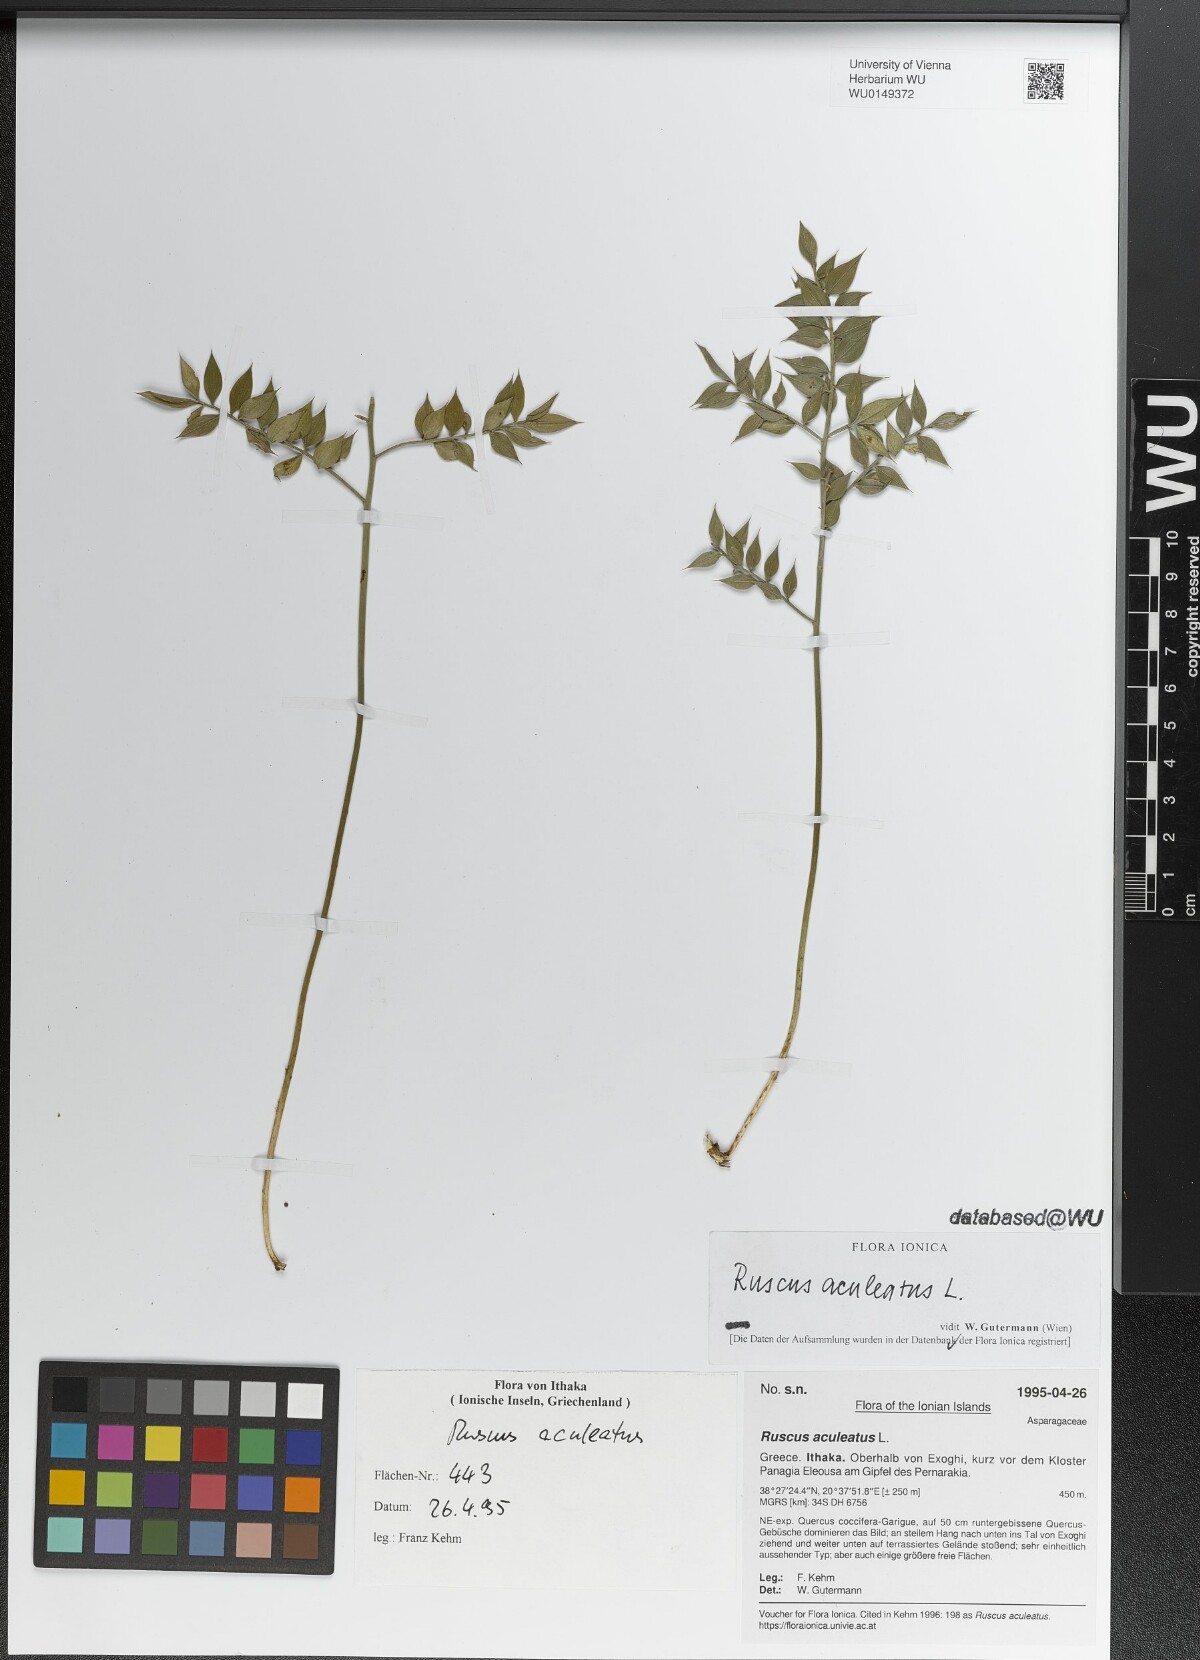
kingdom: Plantae
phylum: Tracheophyta
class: Liliopsida
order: Asparagales
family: Asparagaceae
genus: Ruscus
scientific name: Ruscus aculeatus
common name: Butcher's-broom
